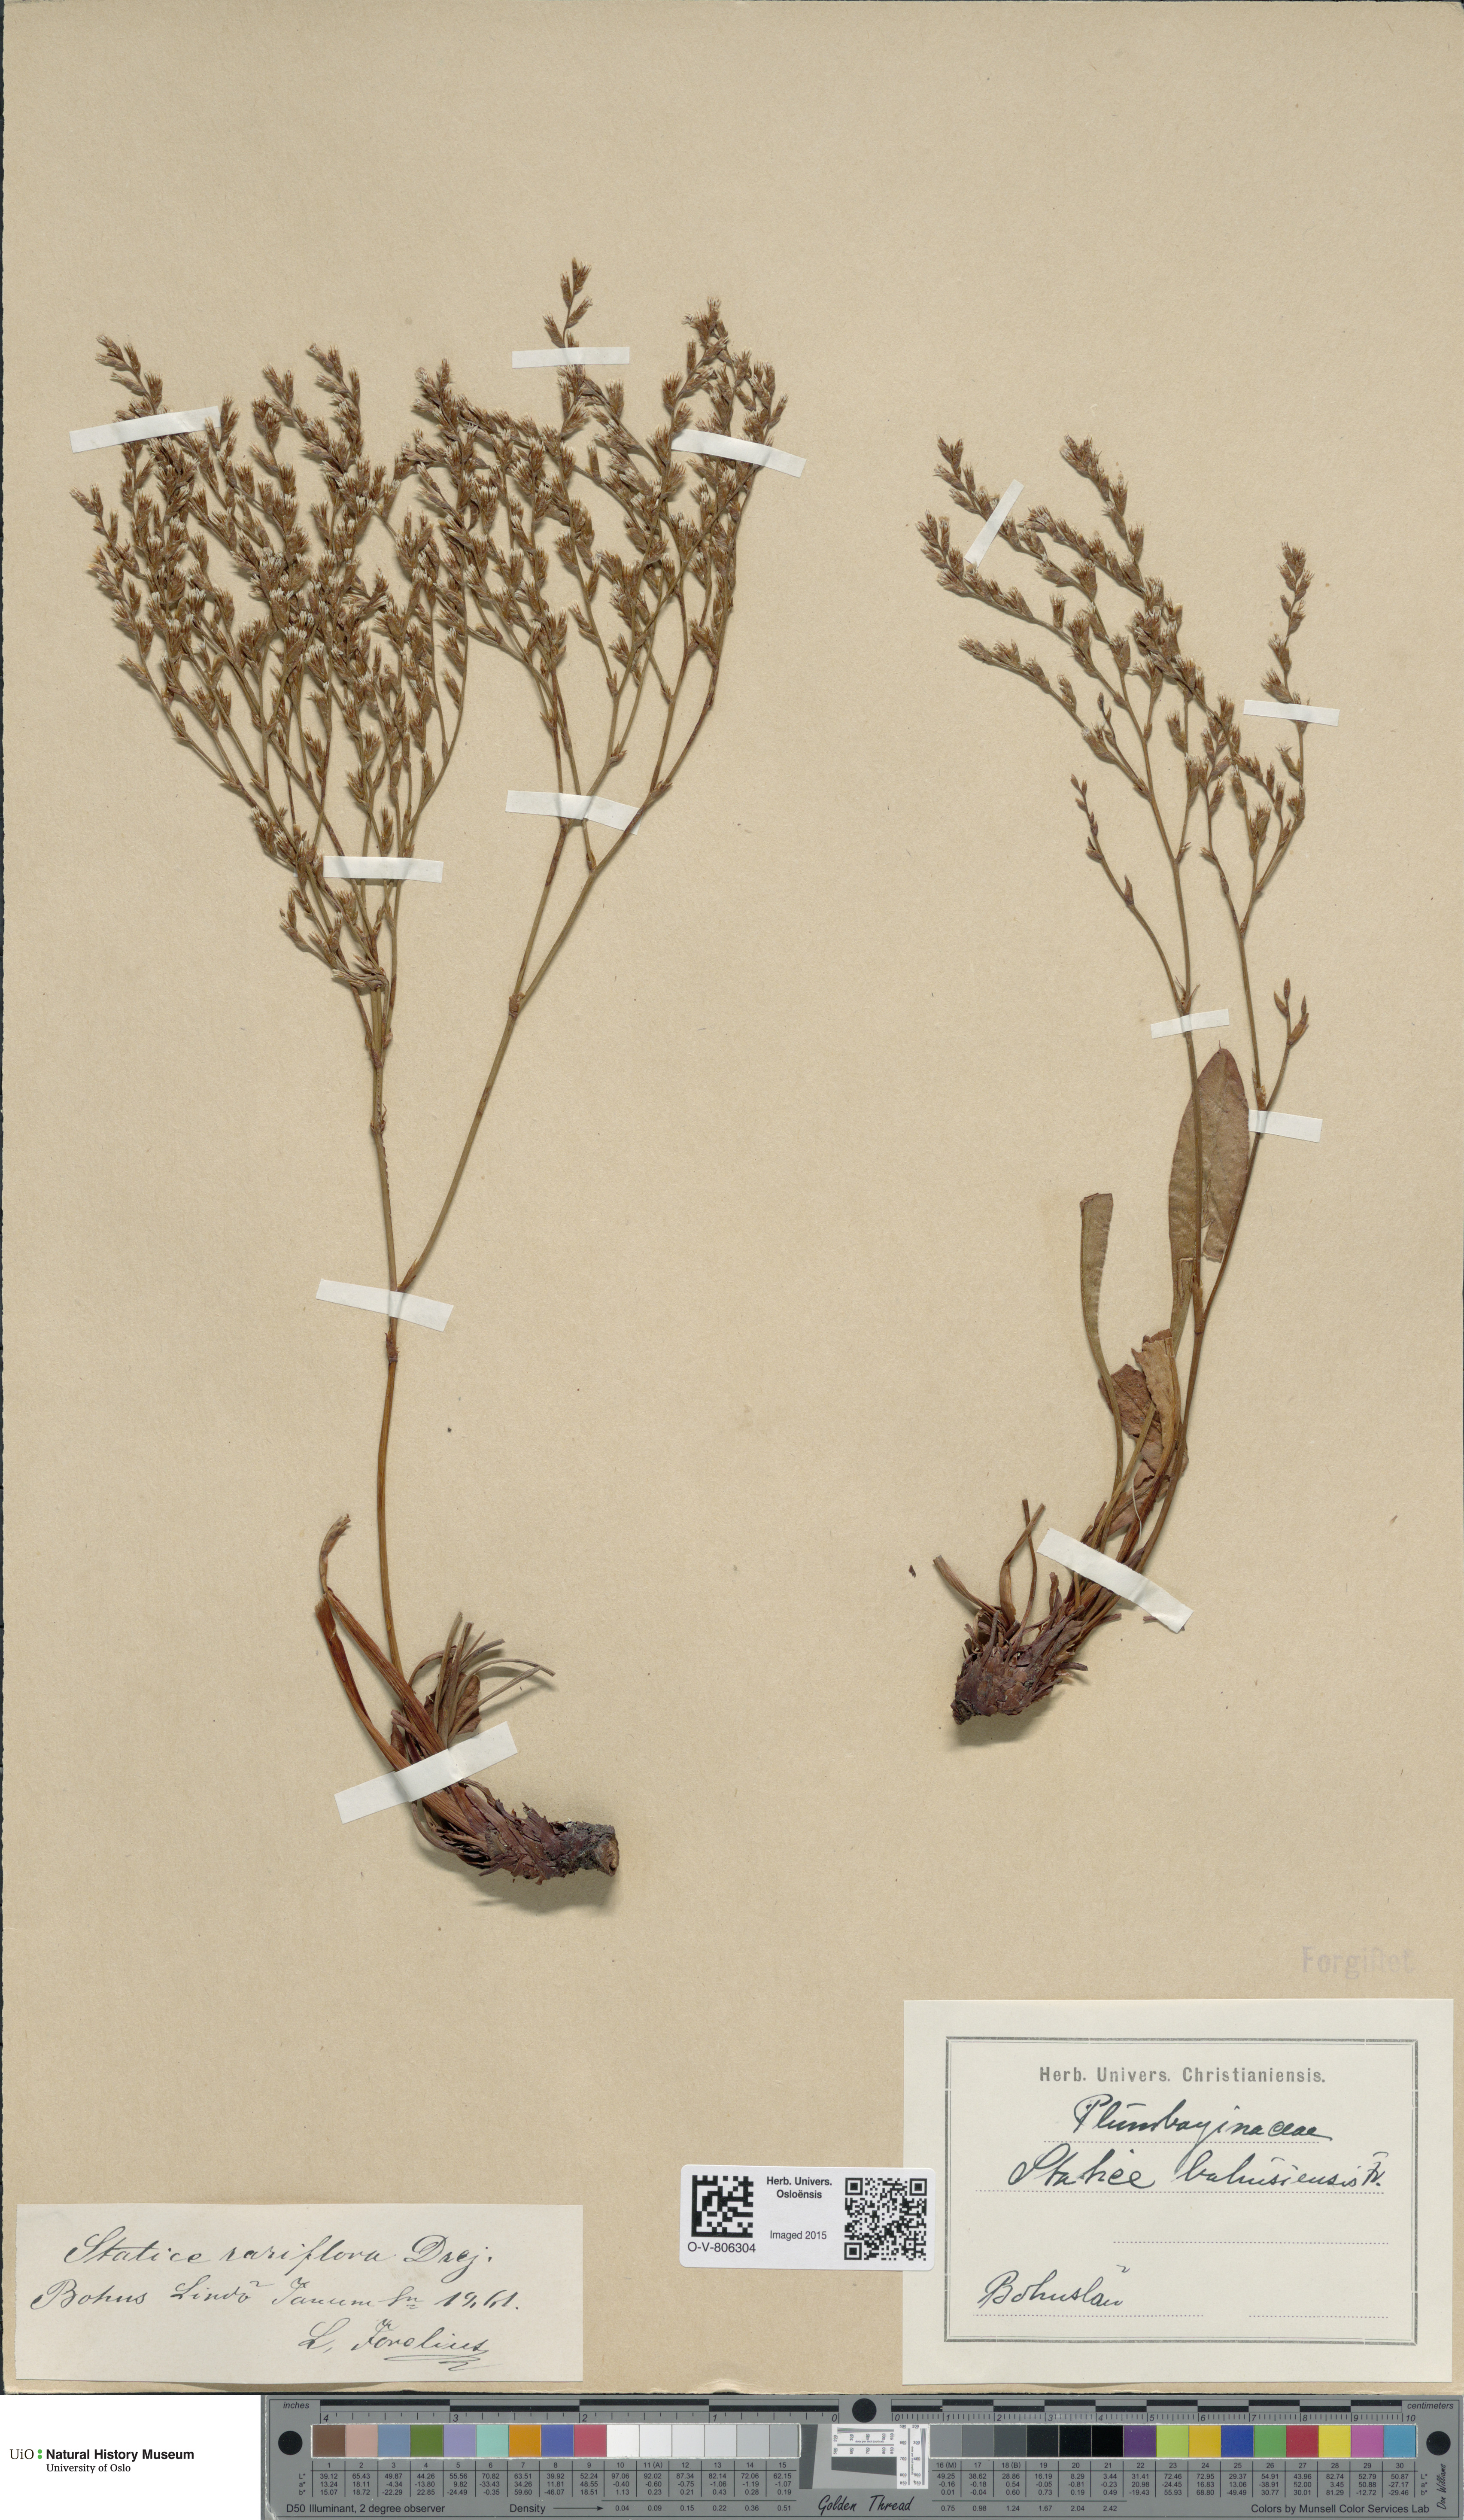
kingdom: Plantae
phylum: Tracheophyta
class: Magnoliopsida
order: Caryophyllales
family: Plumbaginaceae
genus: Limonium
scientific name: Limonium humile
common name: Lax-flowered sea-lavender
